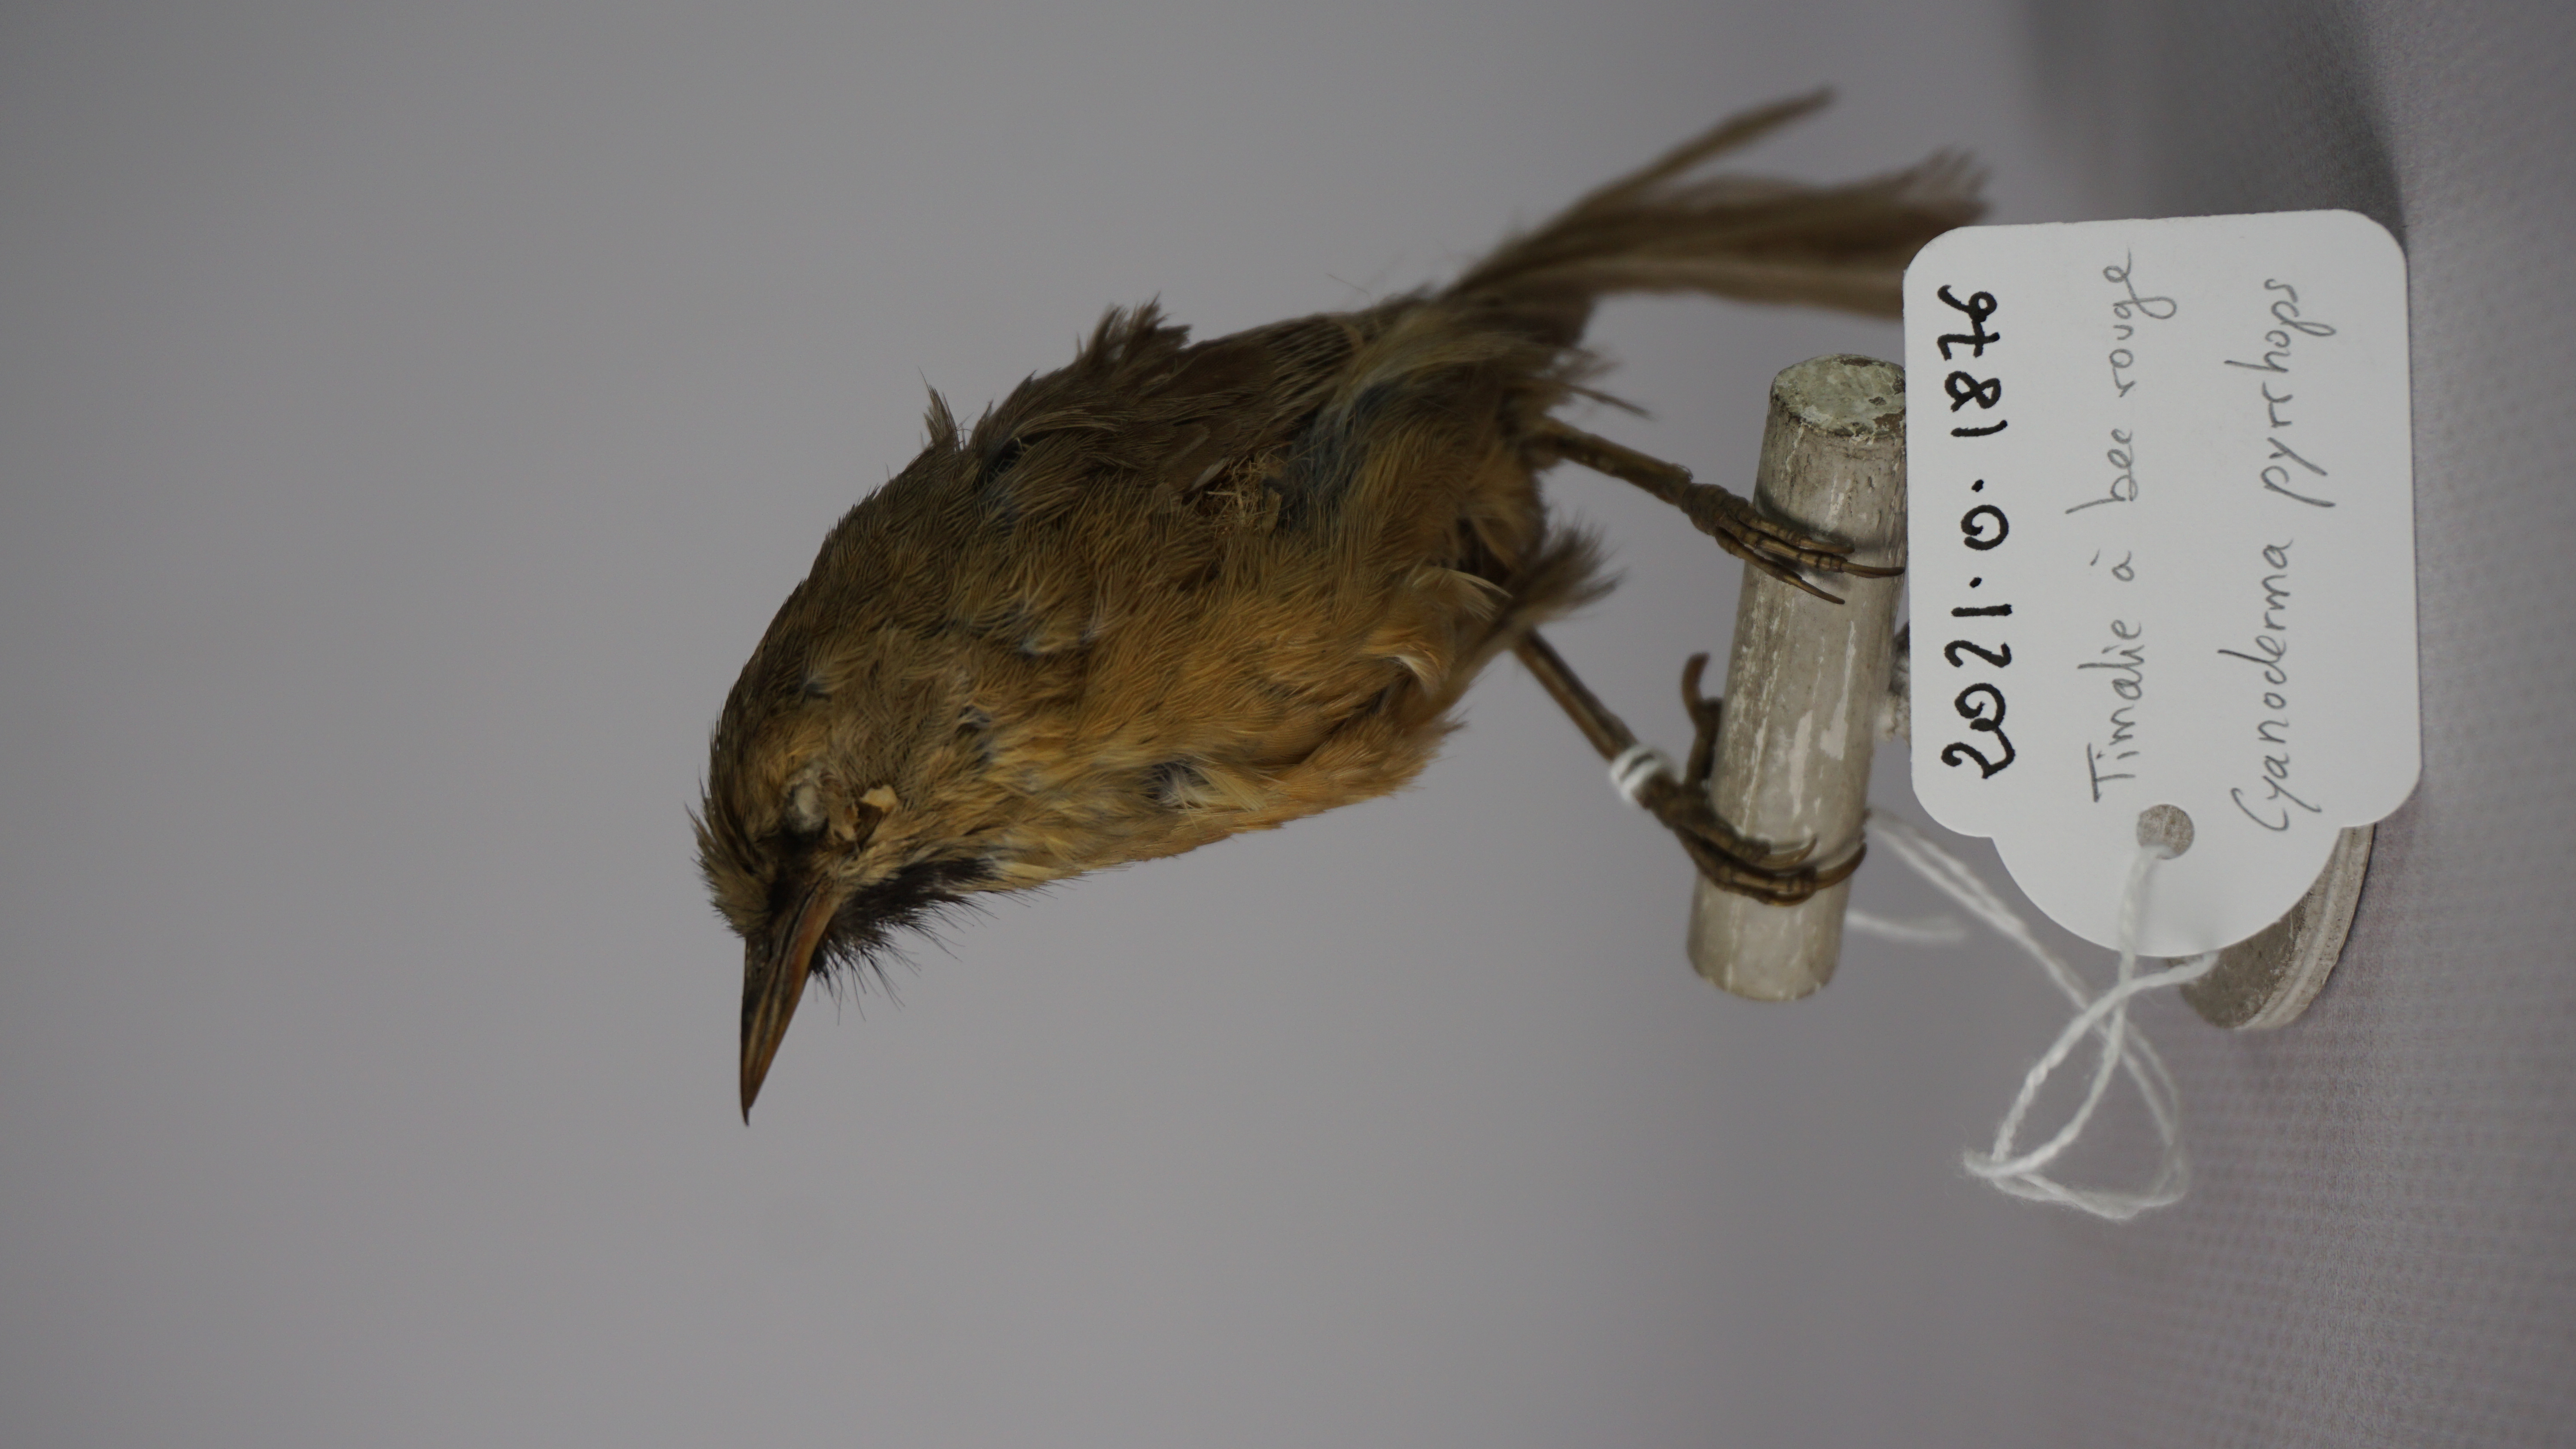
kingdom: Animalia
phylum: Chordata
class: Aves
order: Passeriformes
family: Timaliidae
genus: Stachyridopsis
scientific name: Stachyridopsis pyrrhops
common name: Black-chinned babbler
